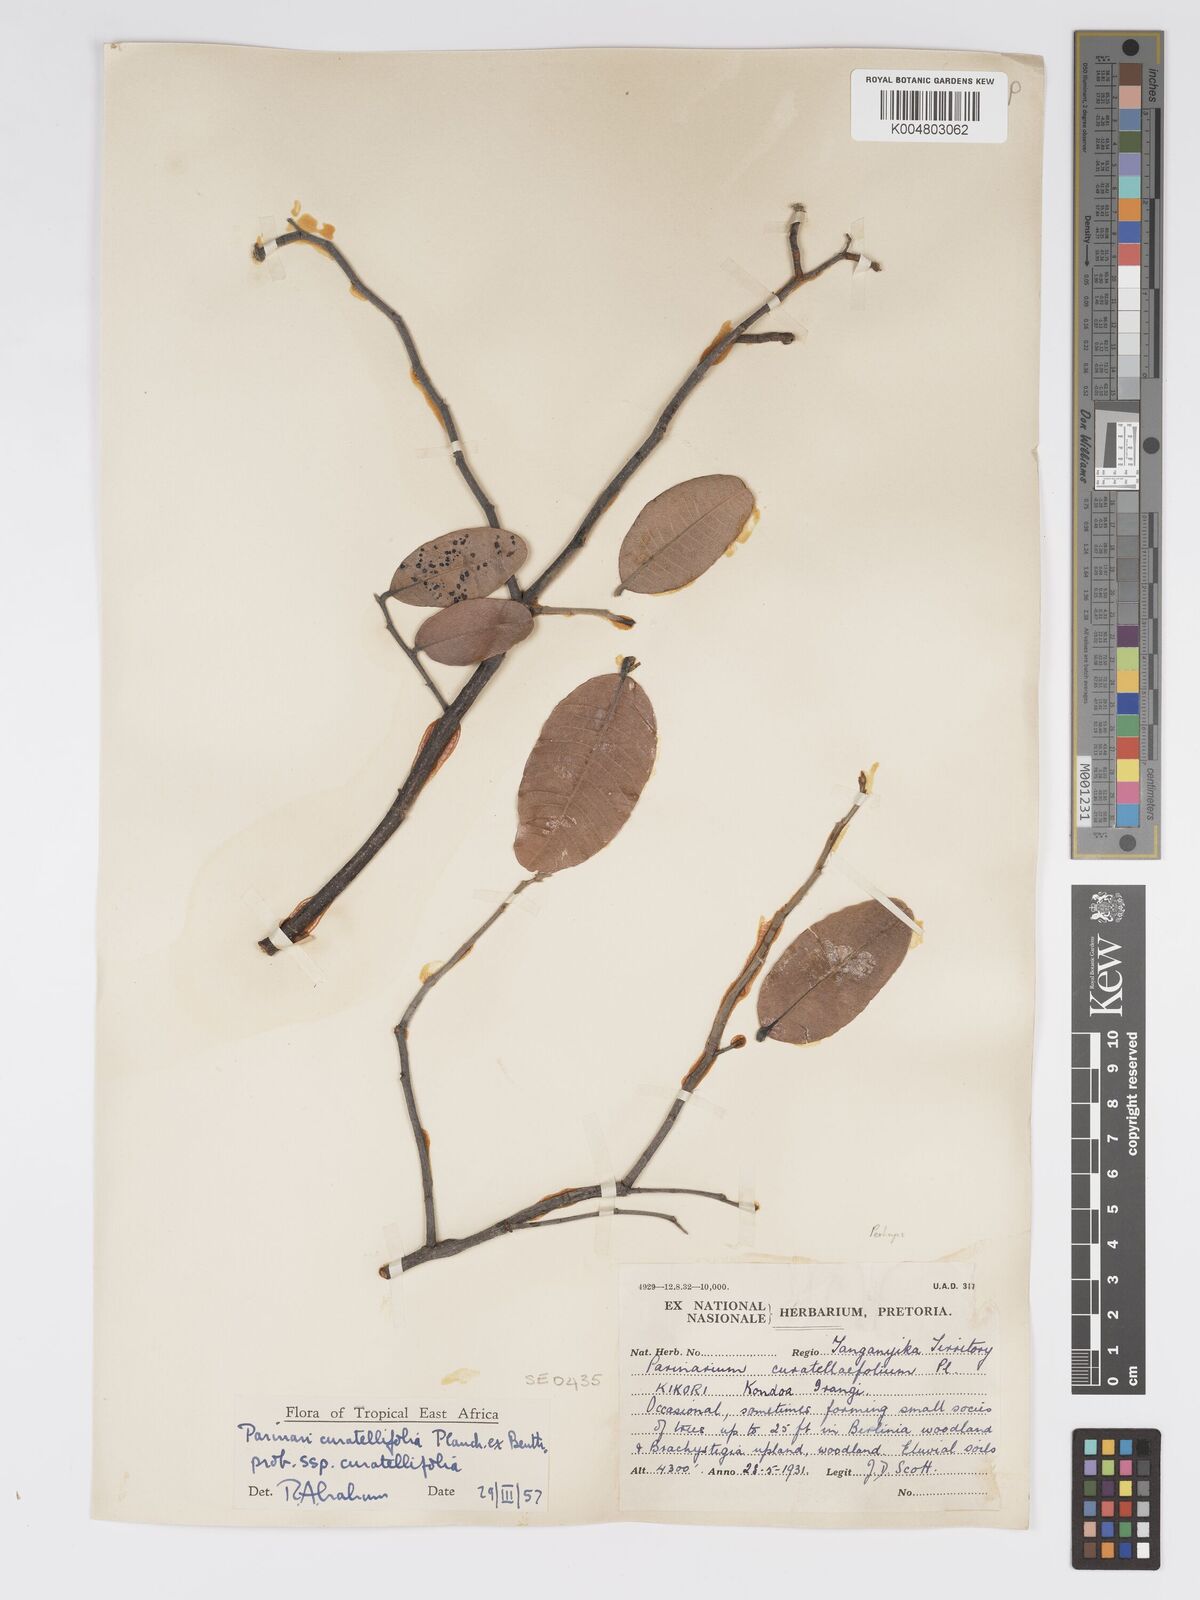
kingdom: Plantae
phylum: Tracheophyta
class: Magnoliopsida
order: Malpighiales
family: Chrysobalanaceae
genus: Parinari
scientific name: Parinari curatellifolia
